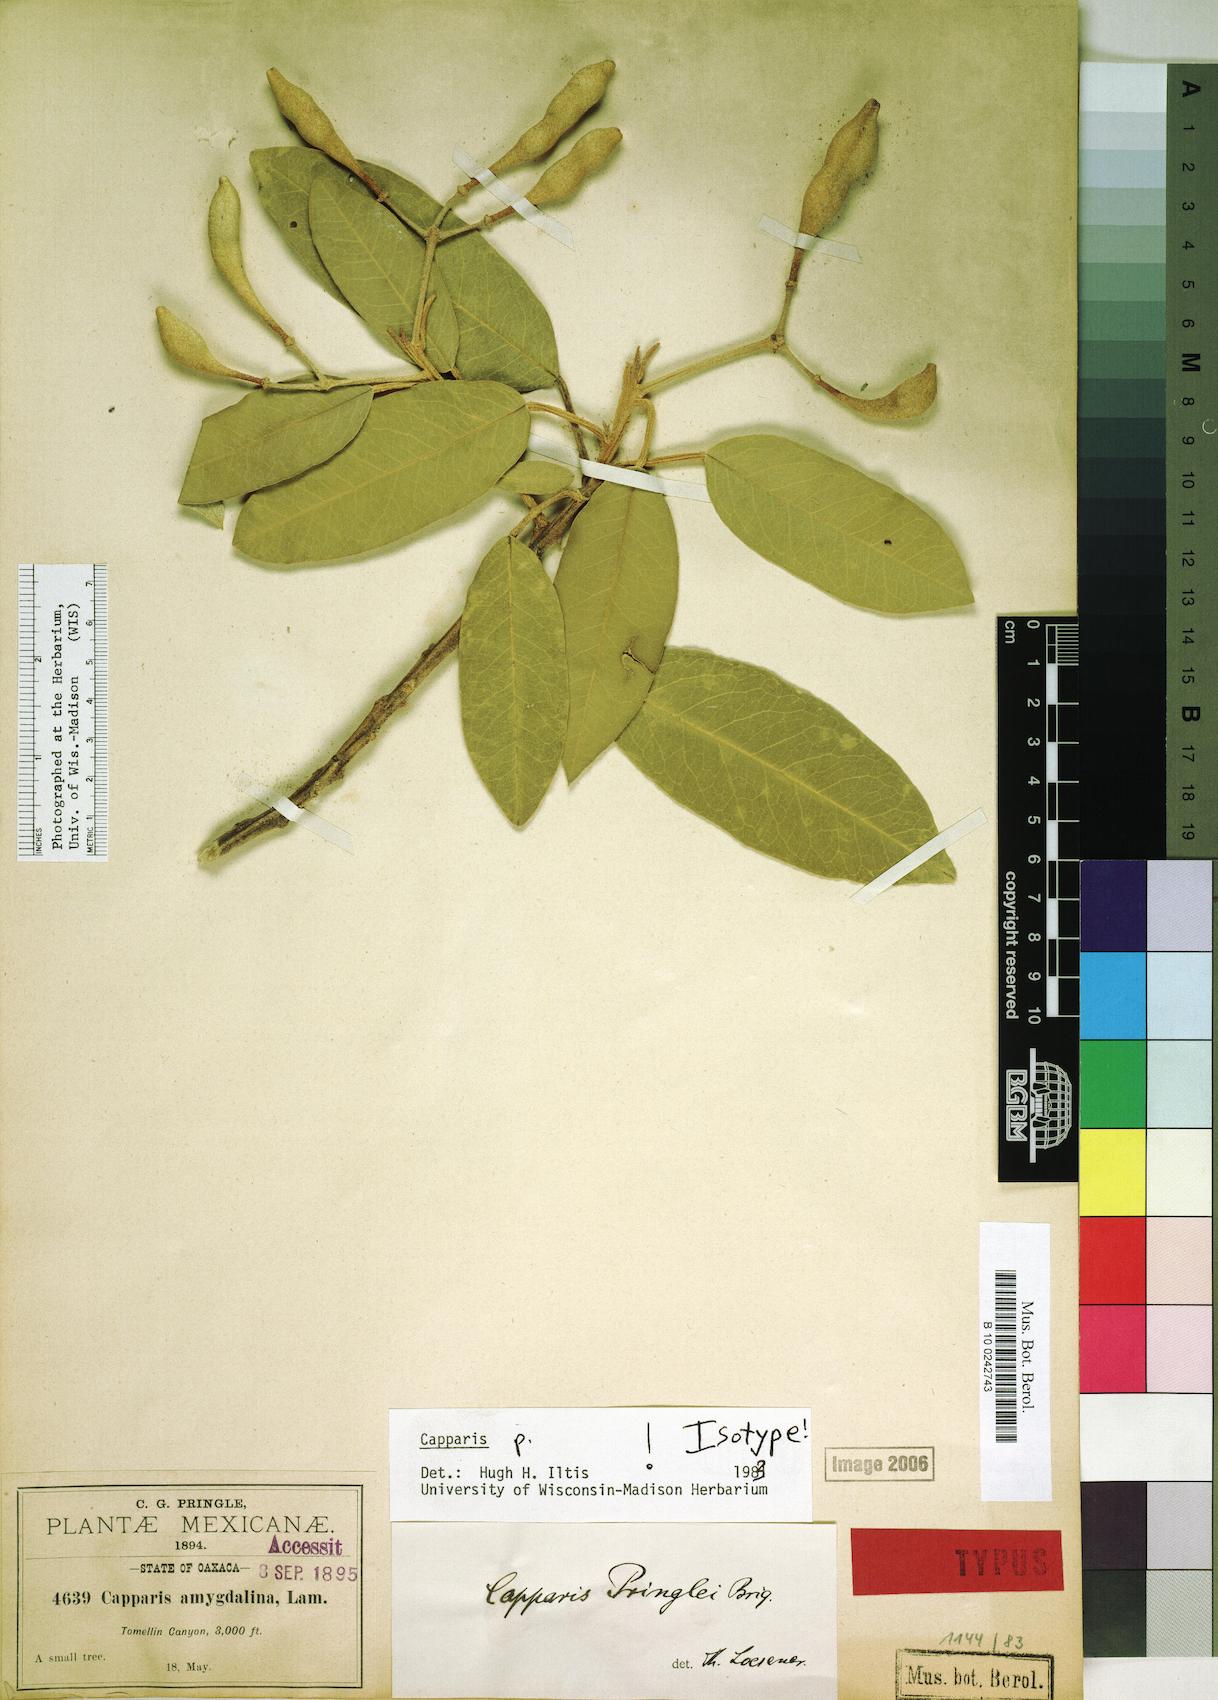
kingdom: Plantae
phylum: Tracheophyta
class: Magnoliopsida
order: Brassicales
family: Capparaceae
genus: Quadrella
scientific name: Quadrella pringlei
